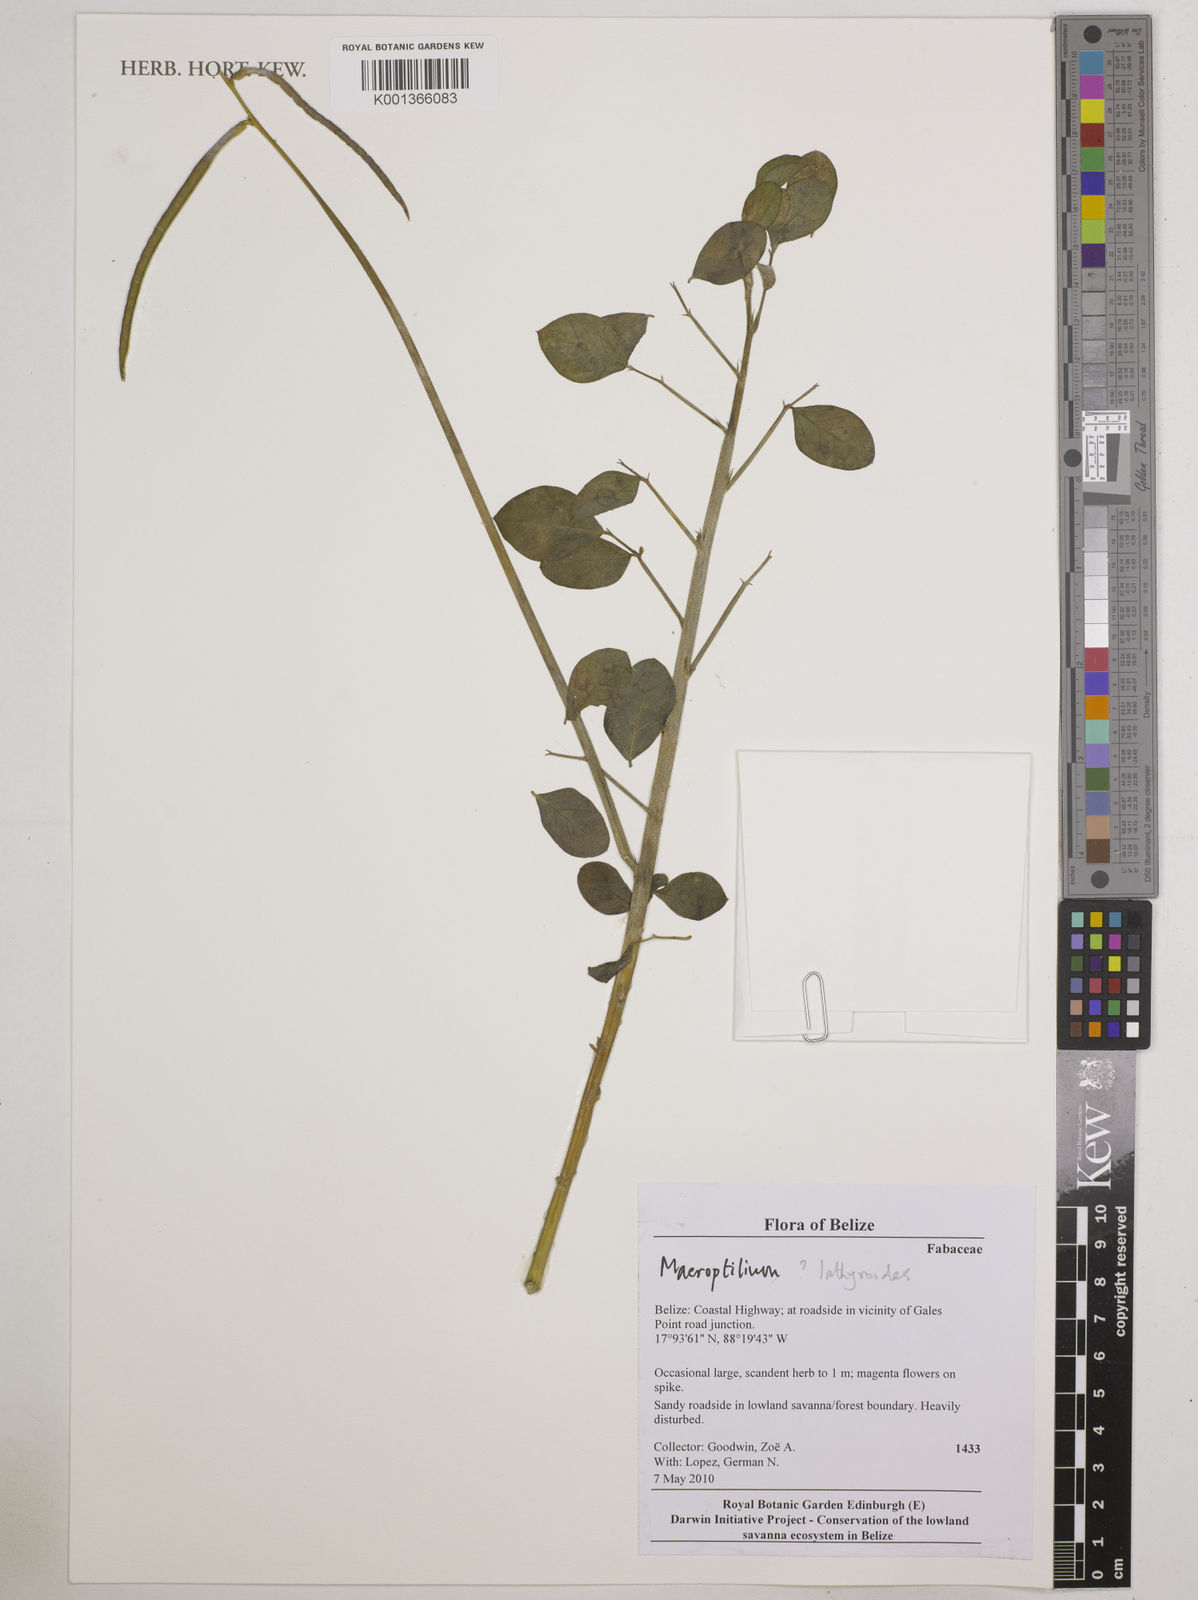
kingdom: Plantae
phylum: Tracheophyta
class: Magnoliopsida
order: Fabales
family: Fabaceae
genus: Macroptilium
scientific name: Macroptilium
